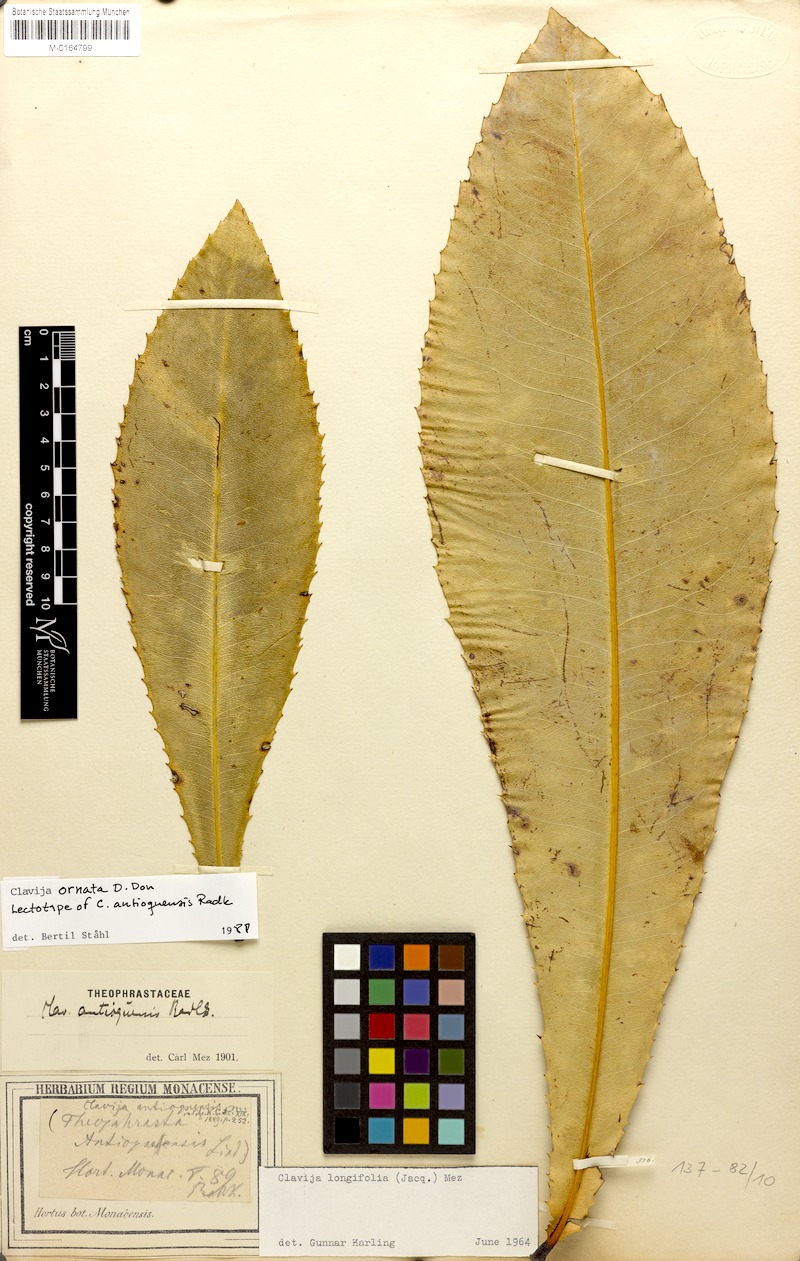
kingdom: Plantae
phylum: Tracheophyta
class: Magnoliopsida
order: Ericales
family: Primulaceae
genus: Clavija
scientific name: Clavija ornata
